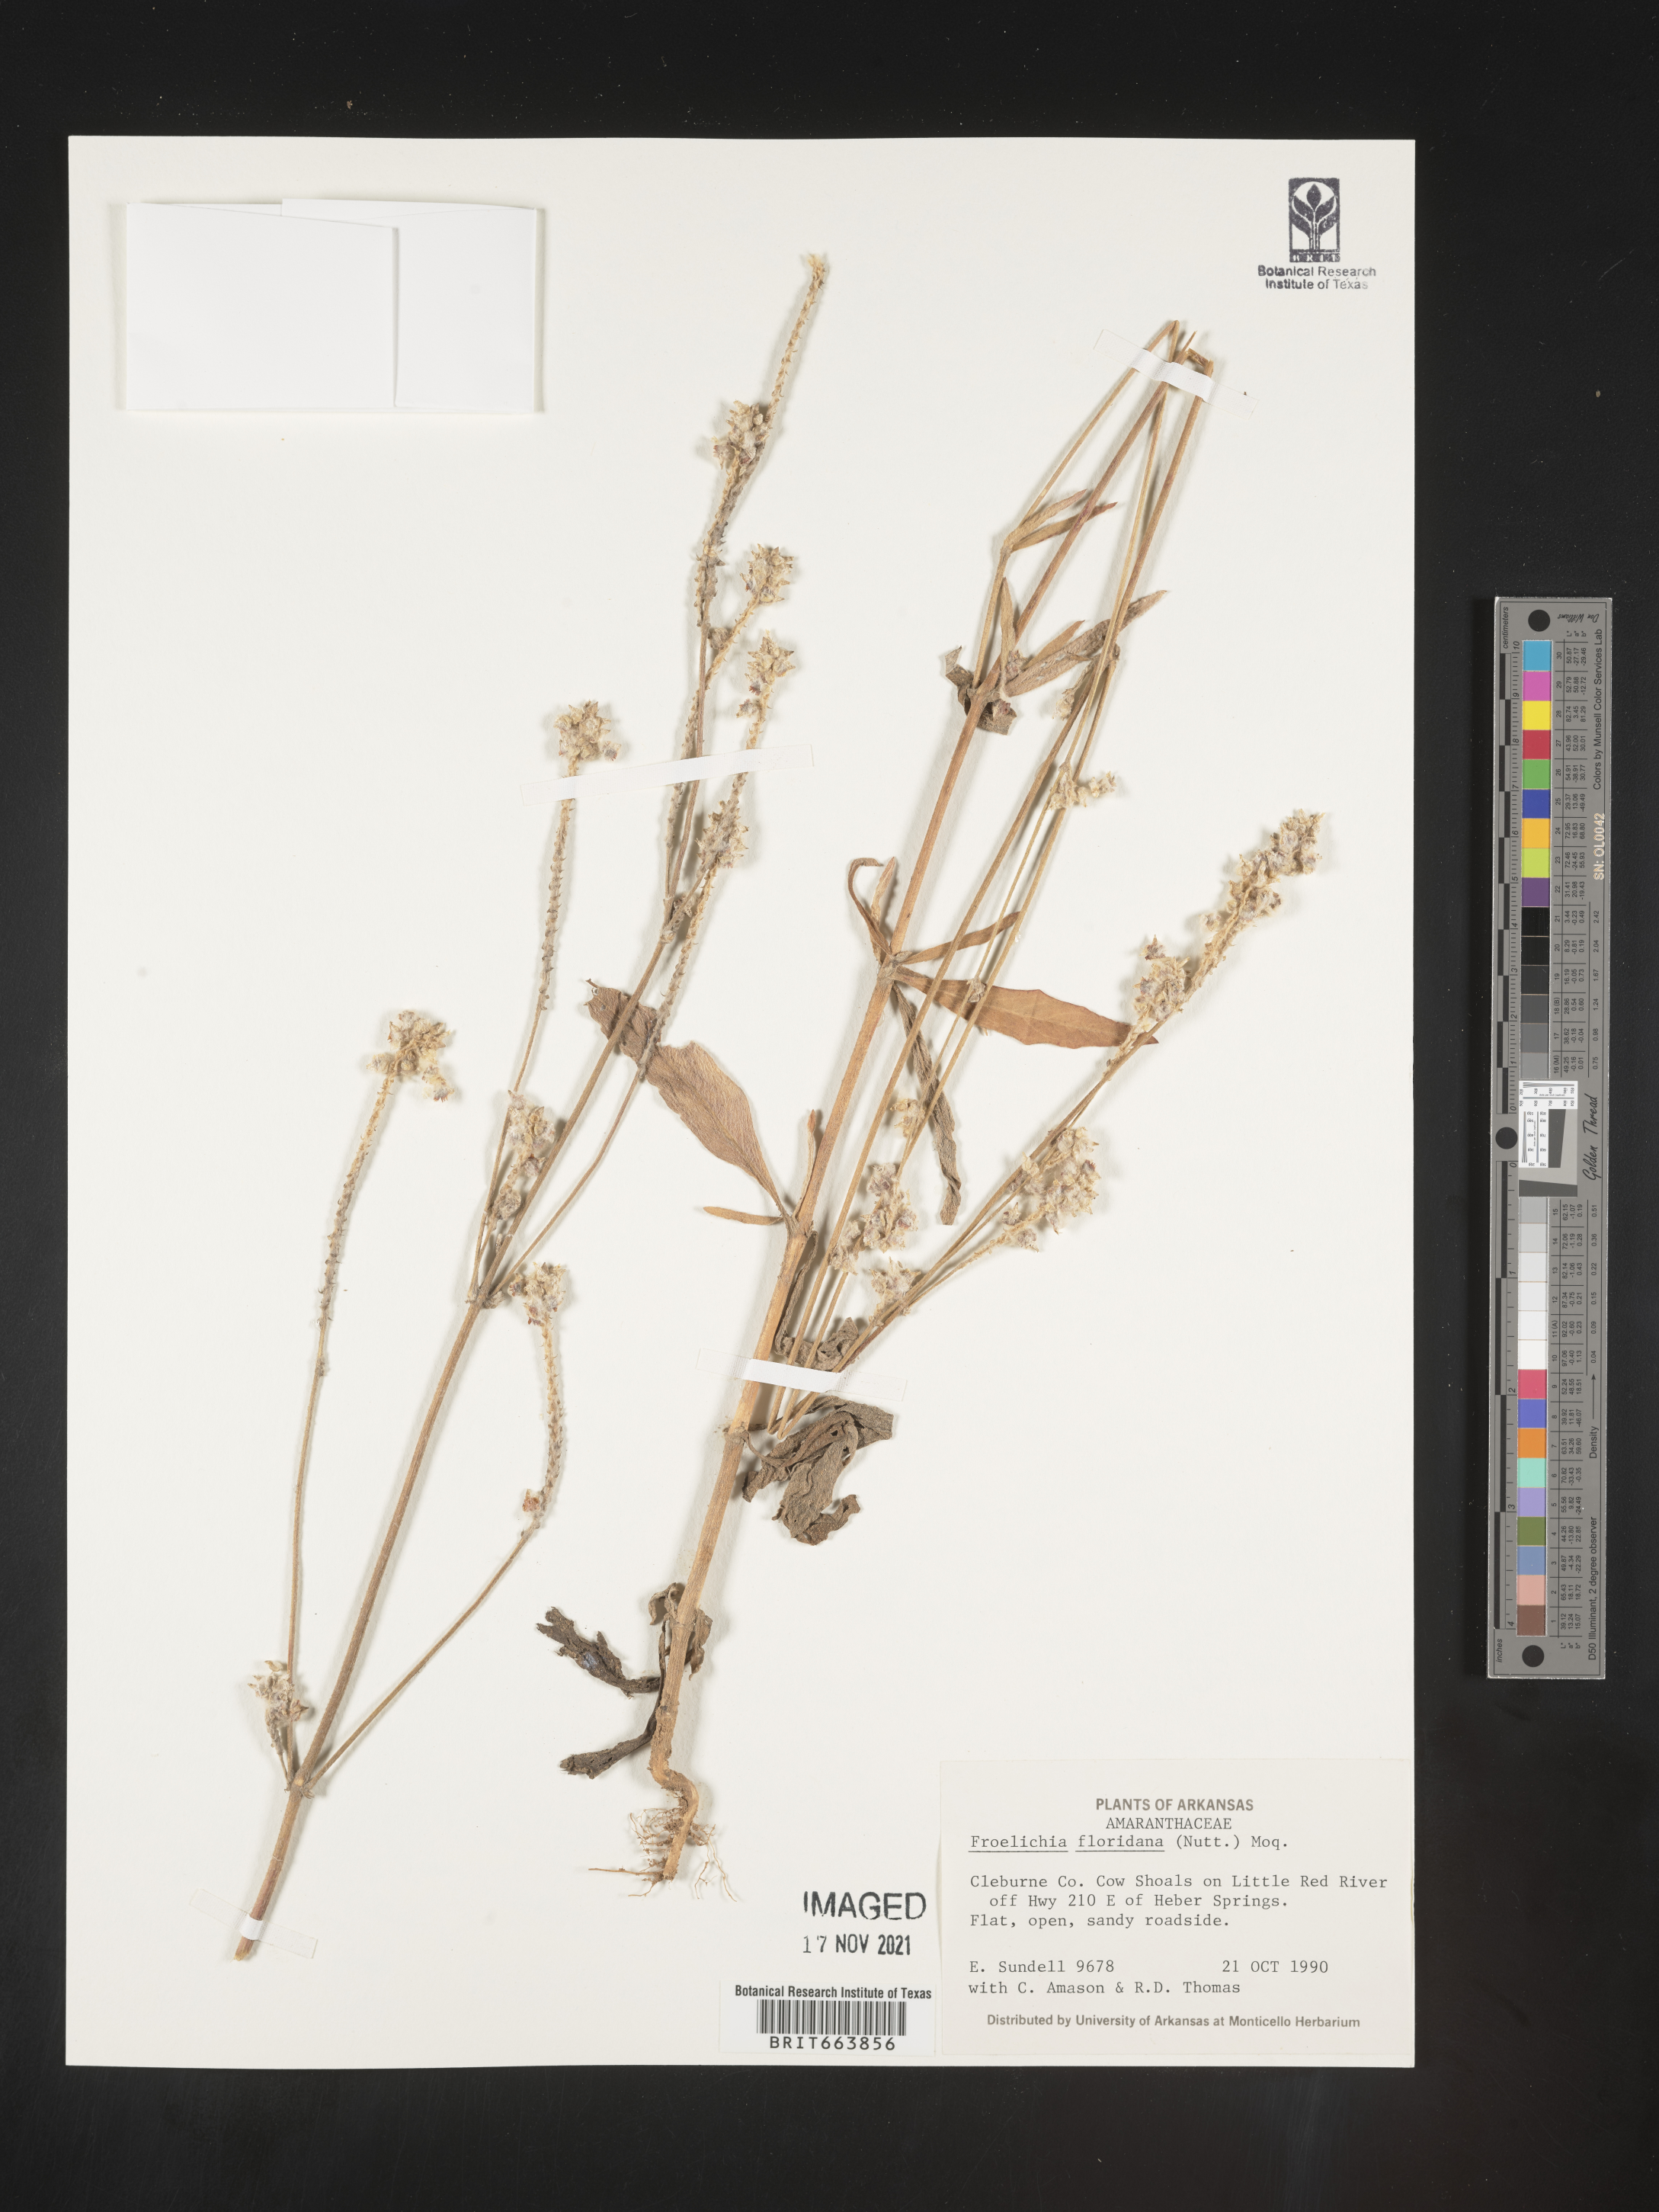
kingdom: Plantae
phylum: Tracheophyta
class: Magnoliopsida
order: Caryophyllales
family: Amaranthaceae
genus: Froelichia
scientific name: Froelichia floridana
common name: Florida snake-cotton
